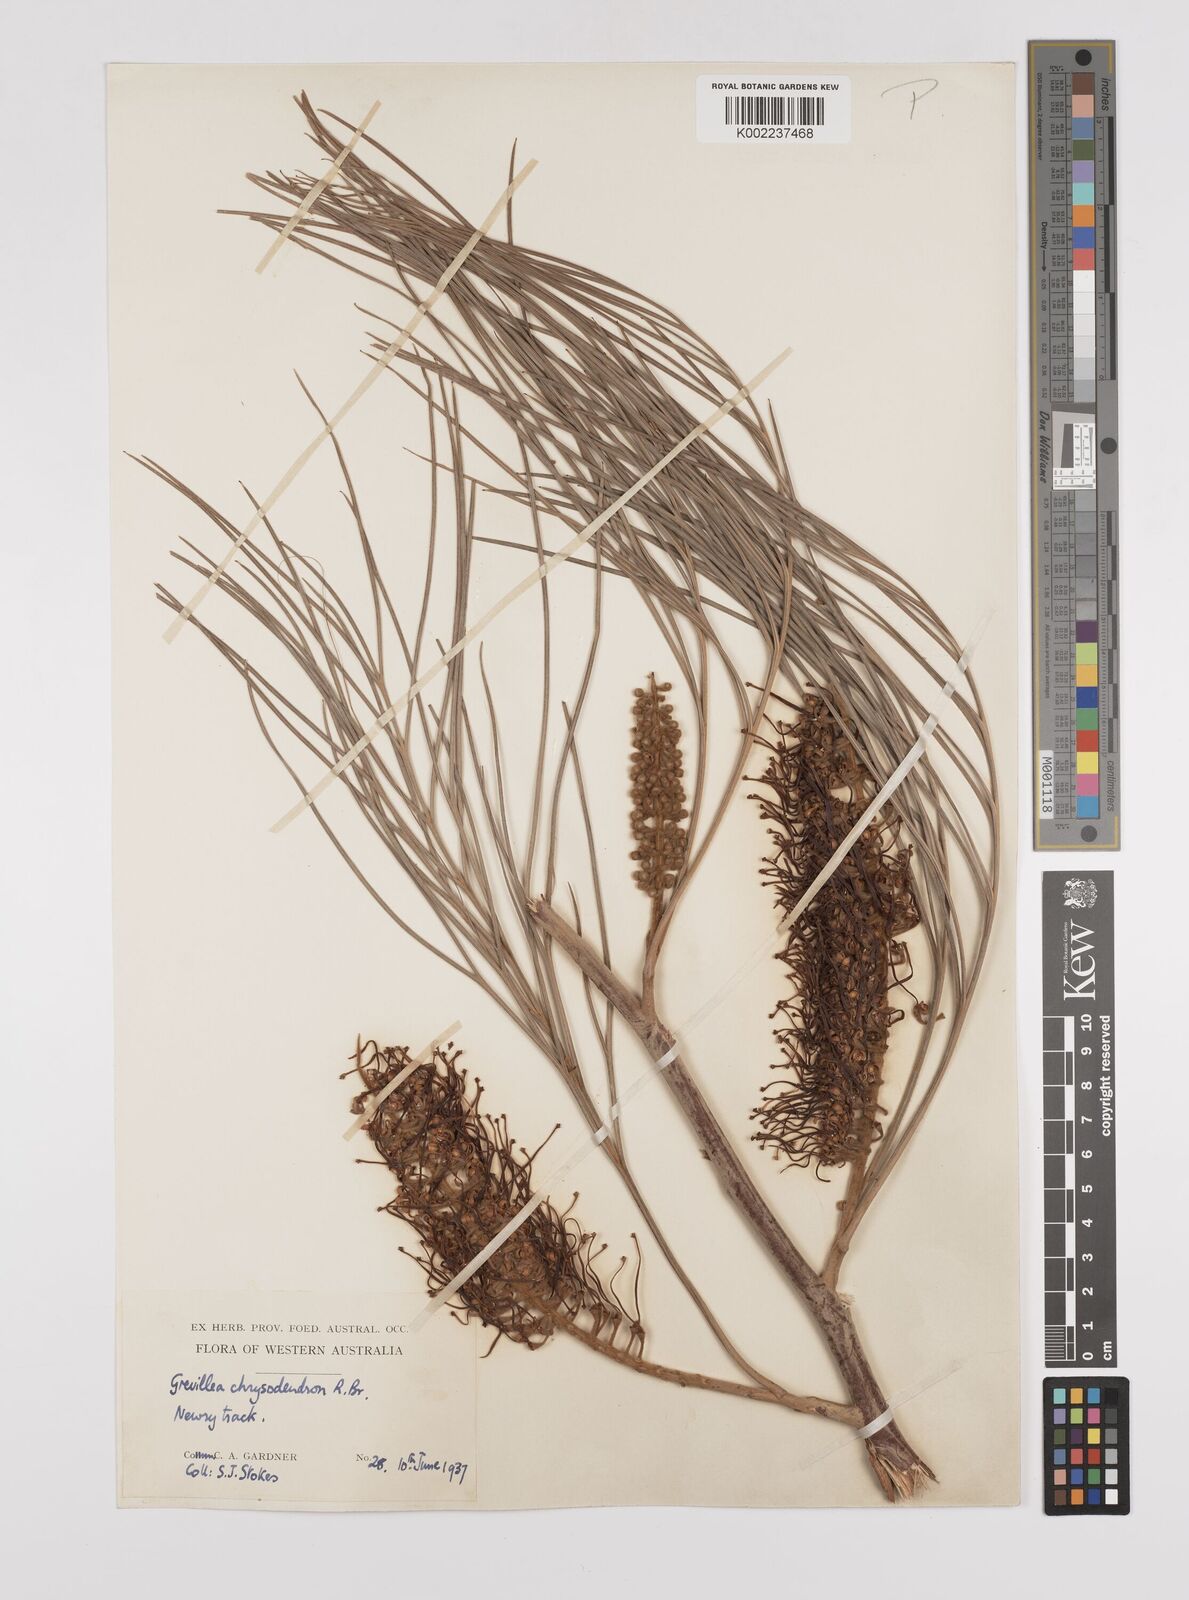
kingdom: Plantae
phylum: Tracheophyta
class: Magnoliopsida
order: Proteales
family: Proteaceae
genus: Grevillea
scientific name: Grevillea pteridifolia
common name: Golden grevillea
